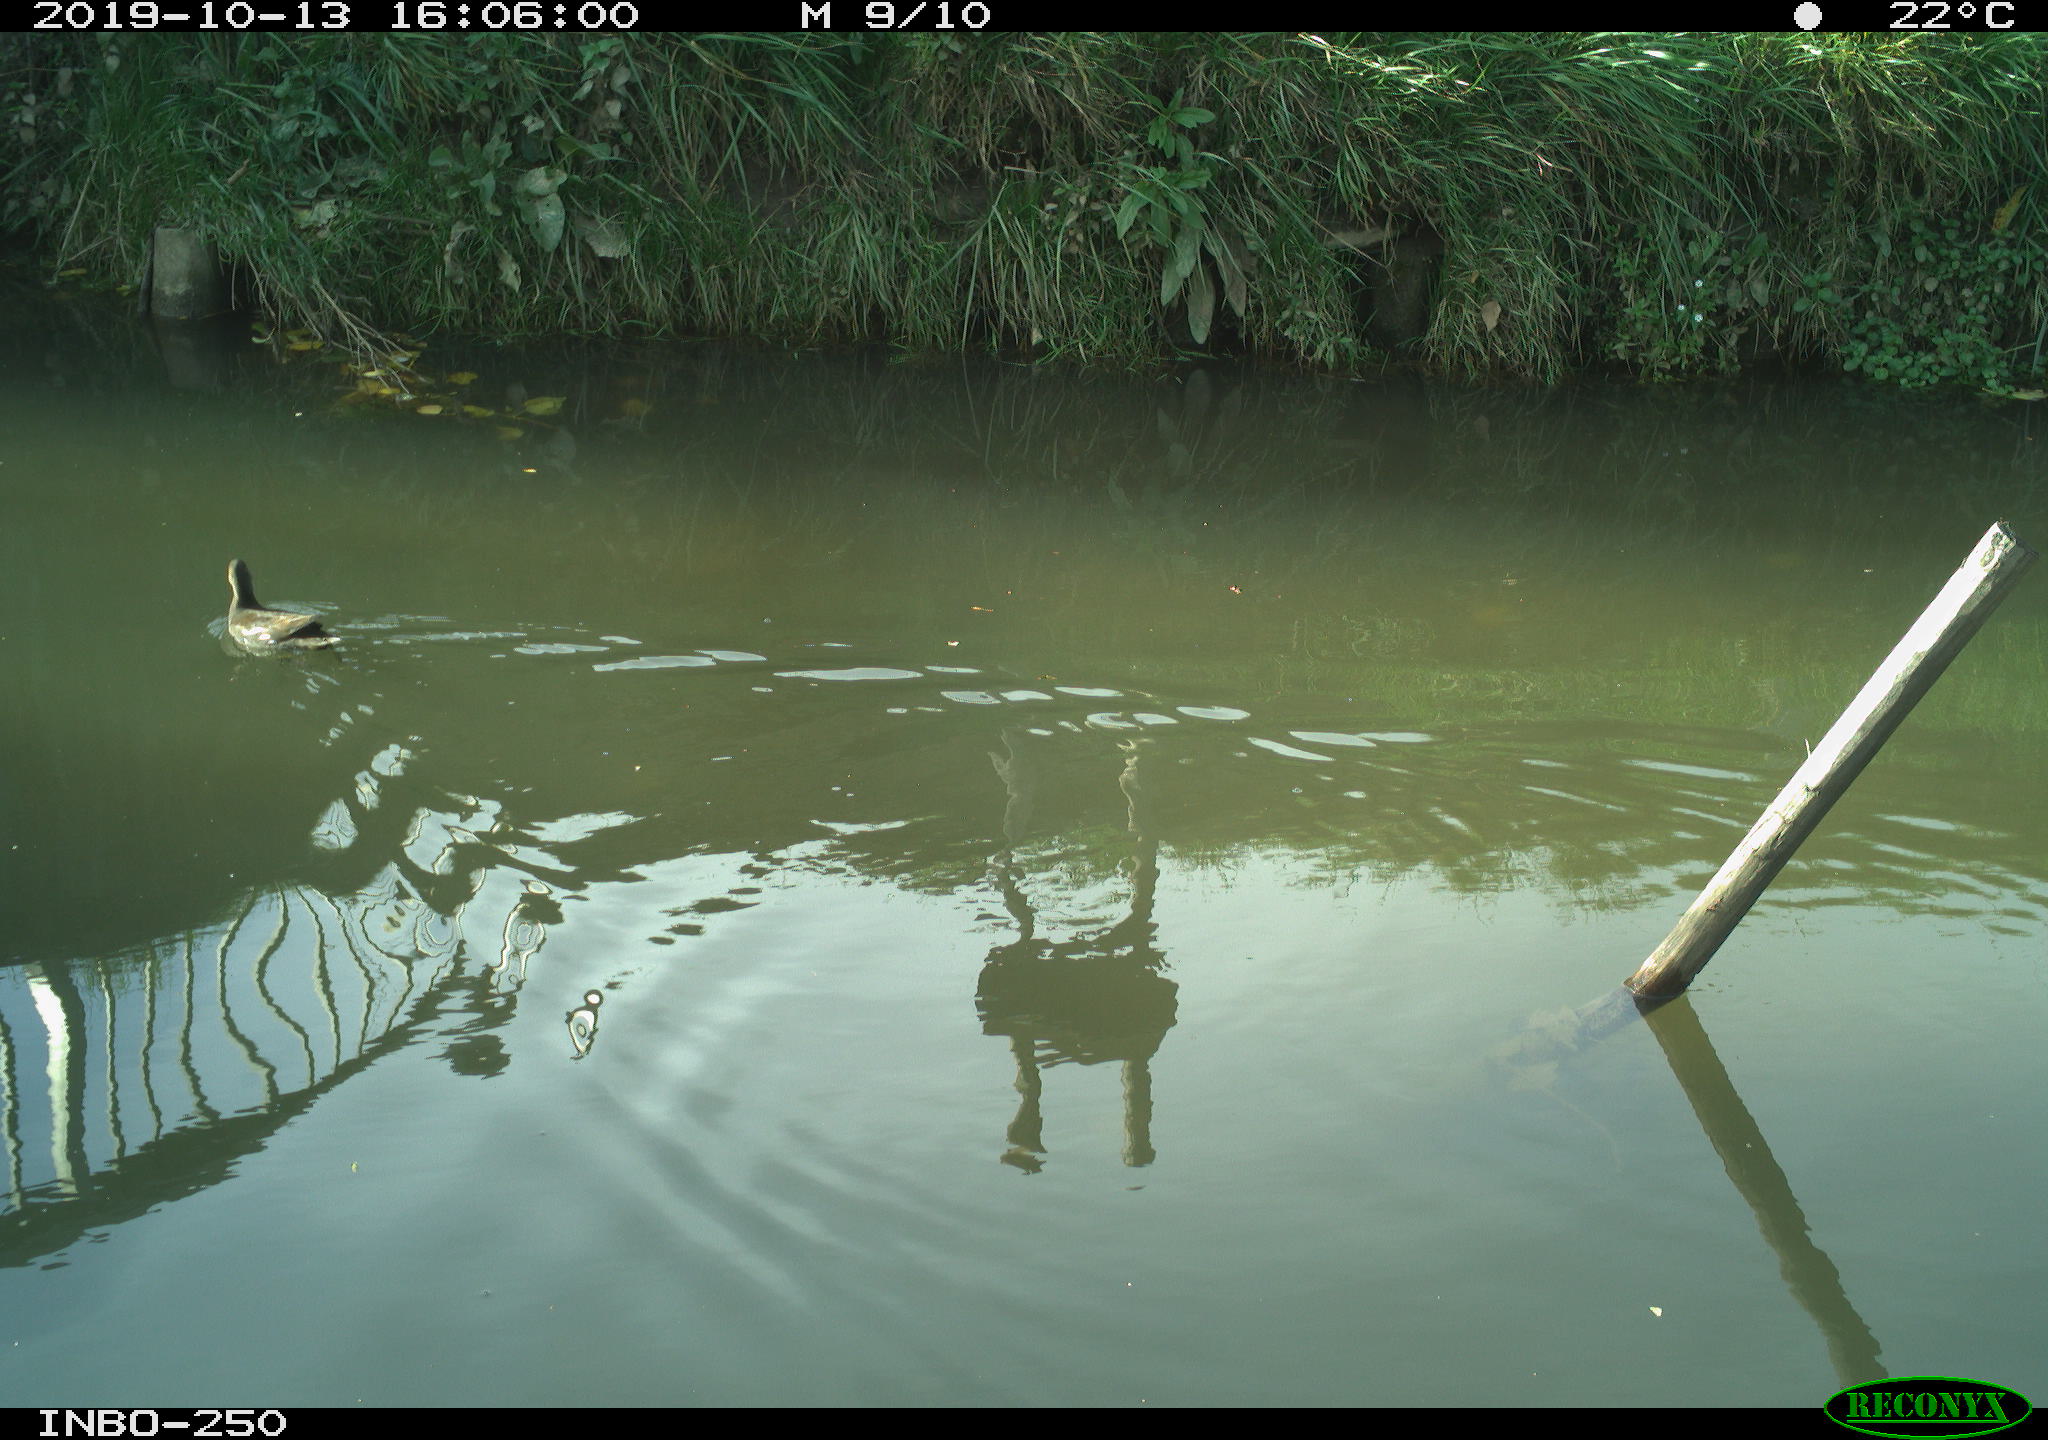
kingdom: Animalia
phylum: Chordata
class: Aves
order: Gruiformes
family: Rallidae
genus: Gallinula
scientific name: Gallinula chloropus
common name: Common moorhen
